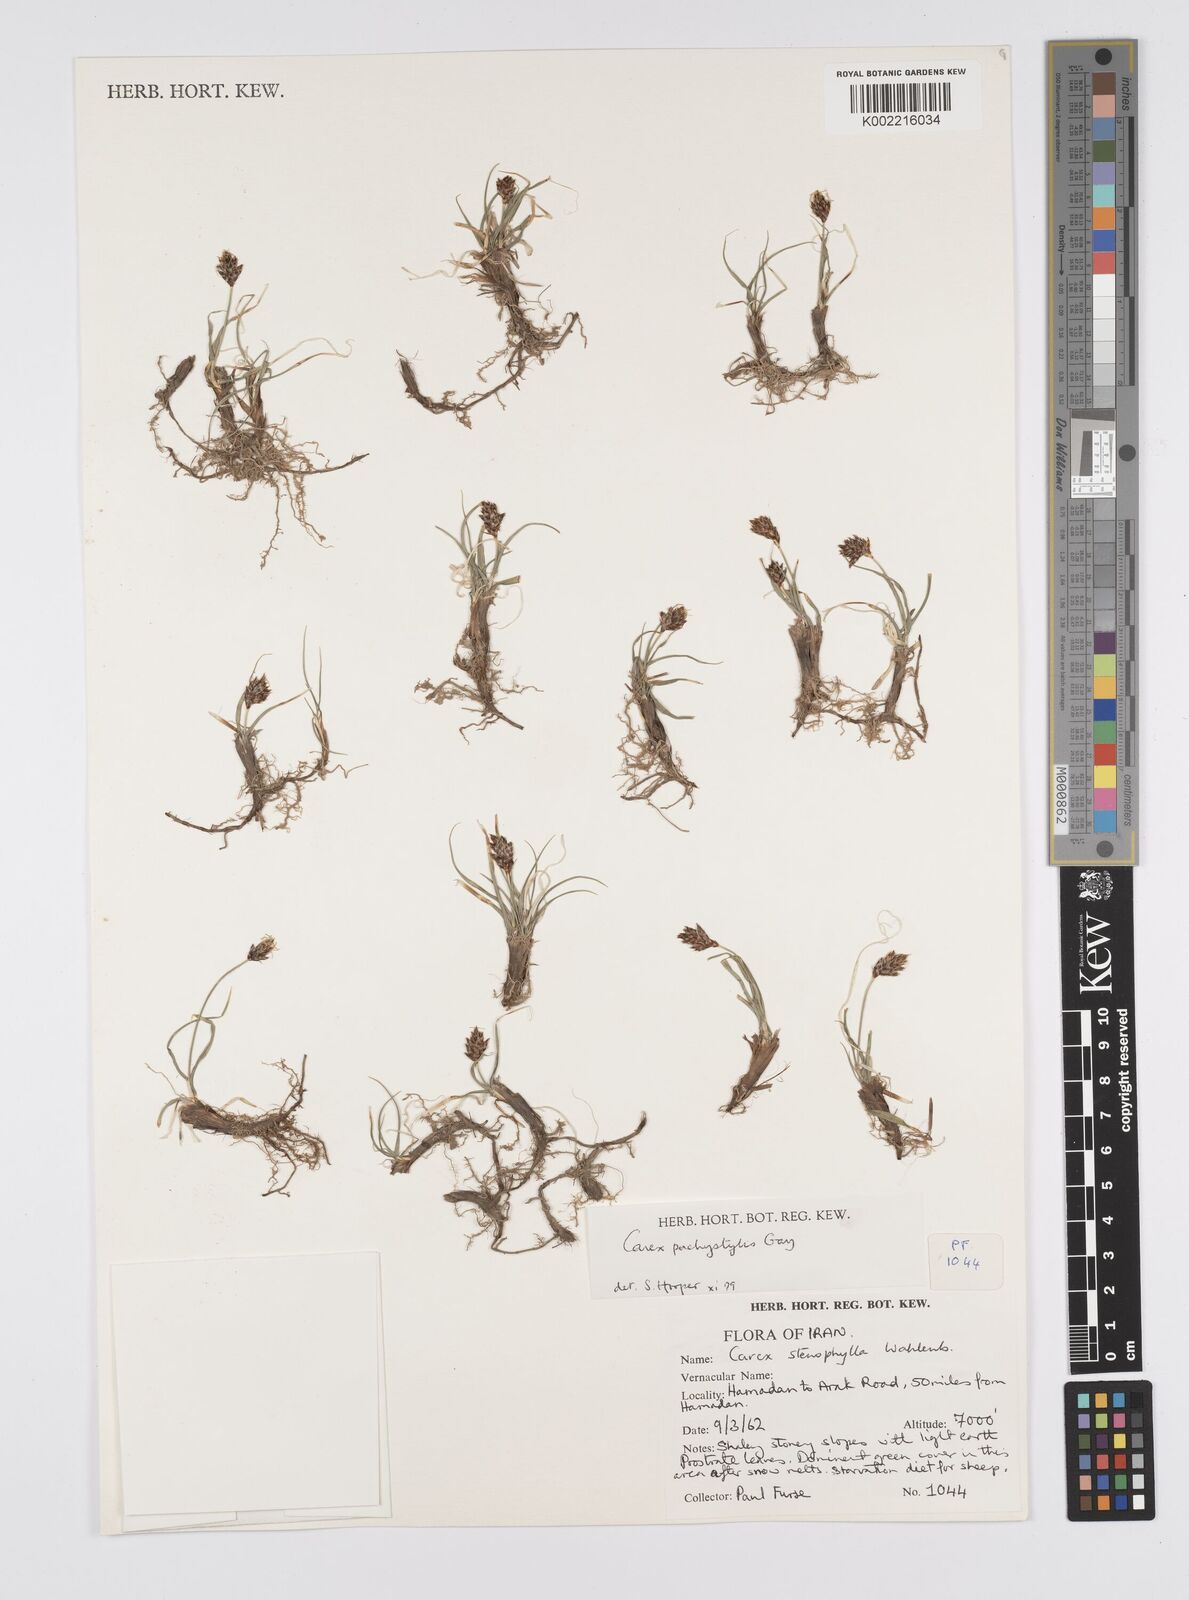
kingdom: Plantae
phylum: Tracheophyta
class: Liliopsida
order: Poales
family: Cyperaceae
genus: Carex
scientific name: Carex pachystylis
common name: Thick-stem sedge
